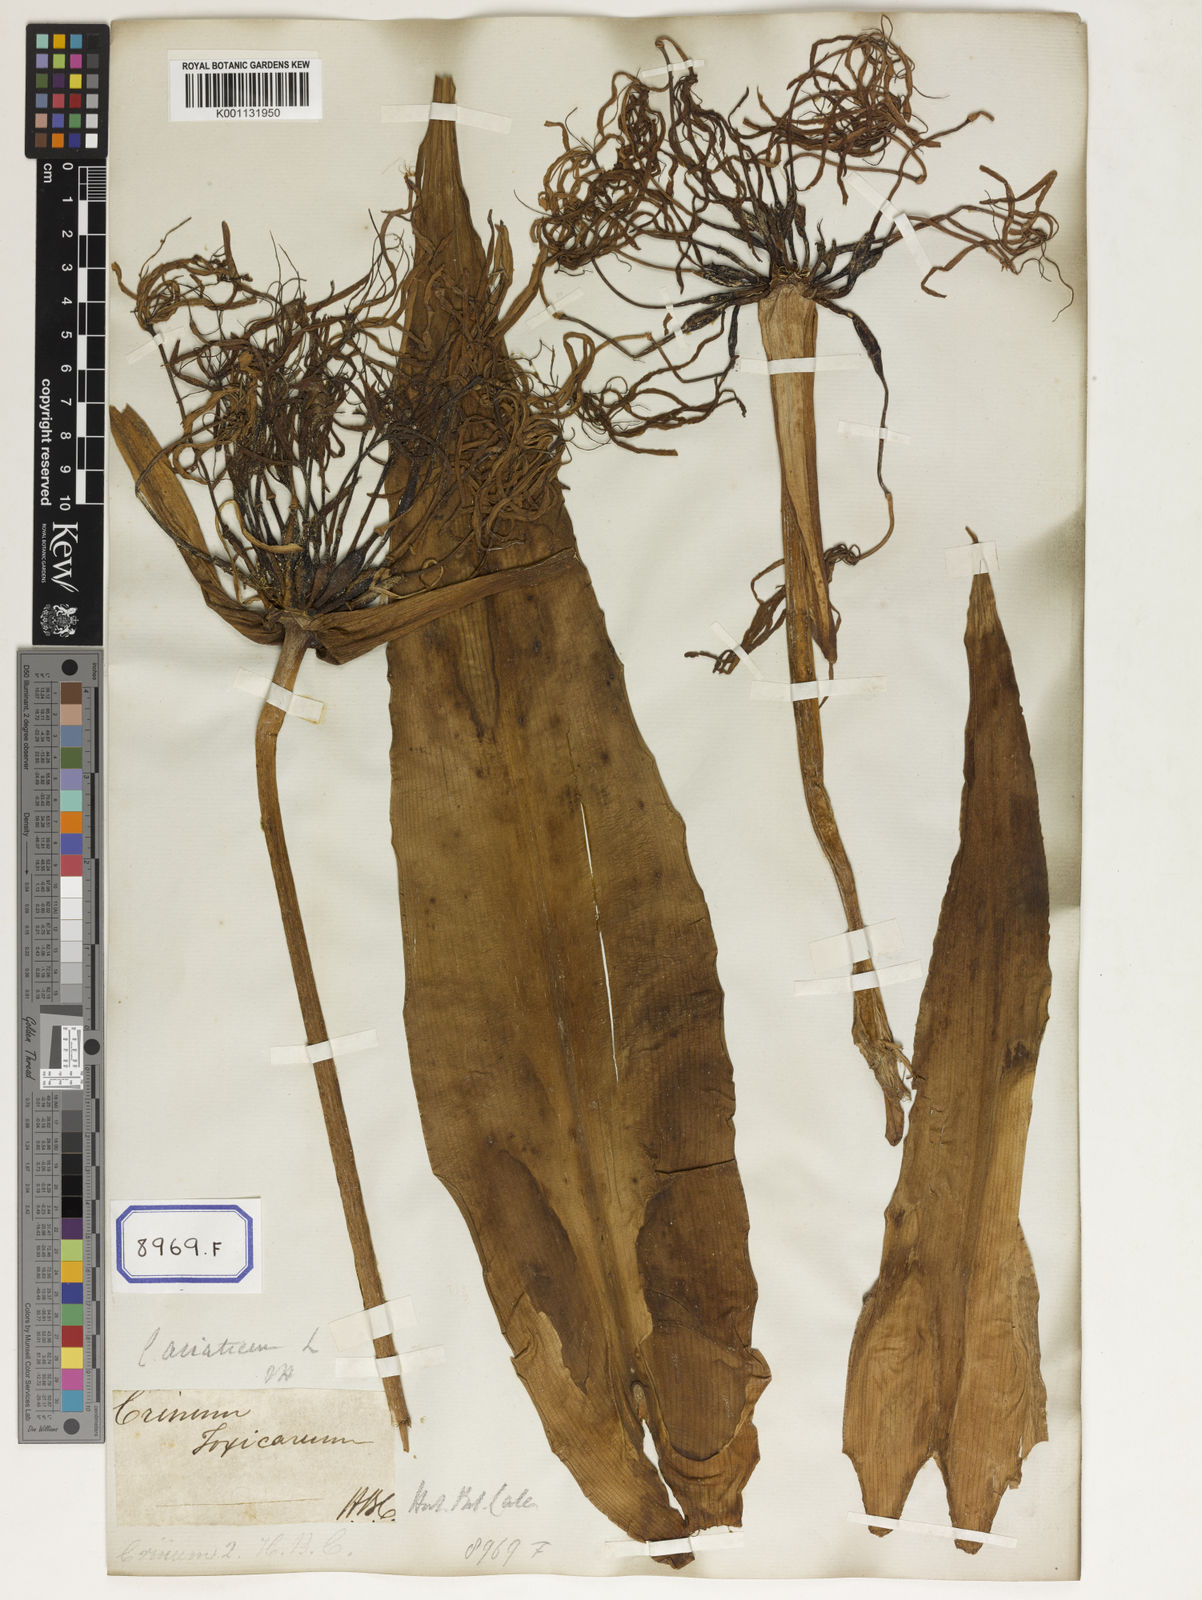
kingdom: Plantae
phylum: Tracheophyta
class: Liliopsida
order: Asparagales
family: Amaryllidaceae
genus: Crinum
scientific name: Crinum asiaticum
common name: Poisonbulb
